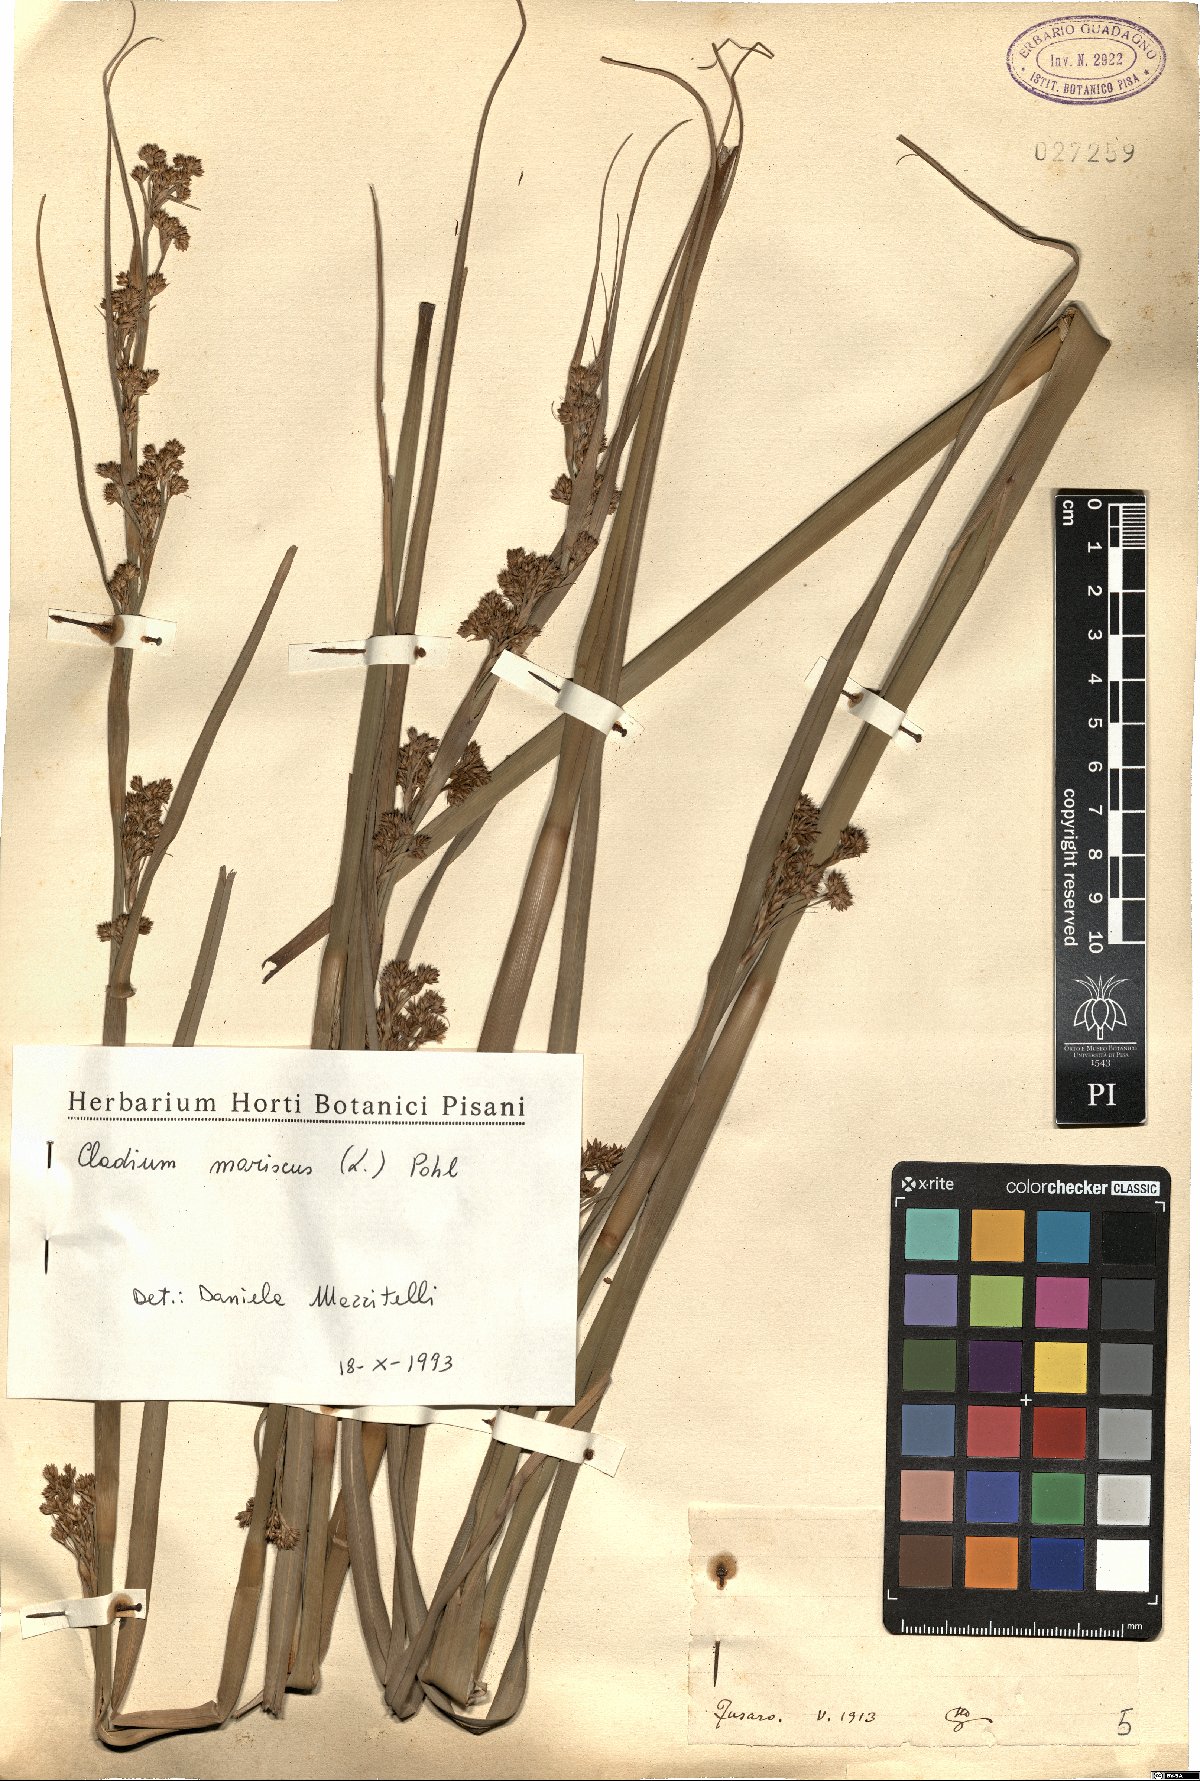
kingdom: Plantae
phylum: Tracheophyta
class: Liliopsida
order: Poales
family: Cyperaceae
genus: Cladium
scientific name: Cladium mariscus
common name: Great fen-sedge
